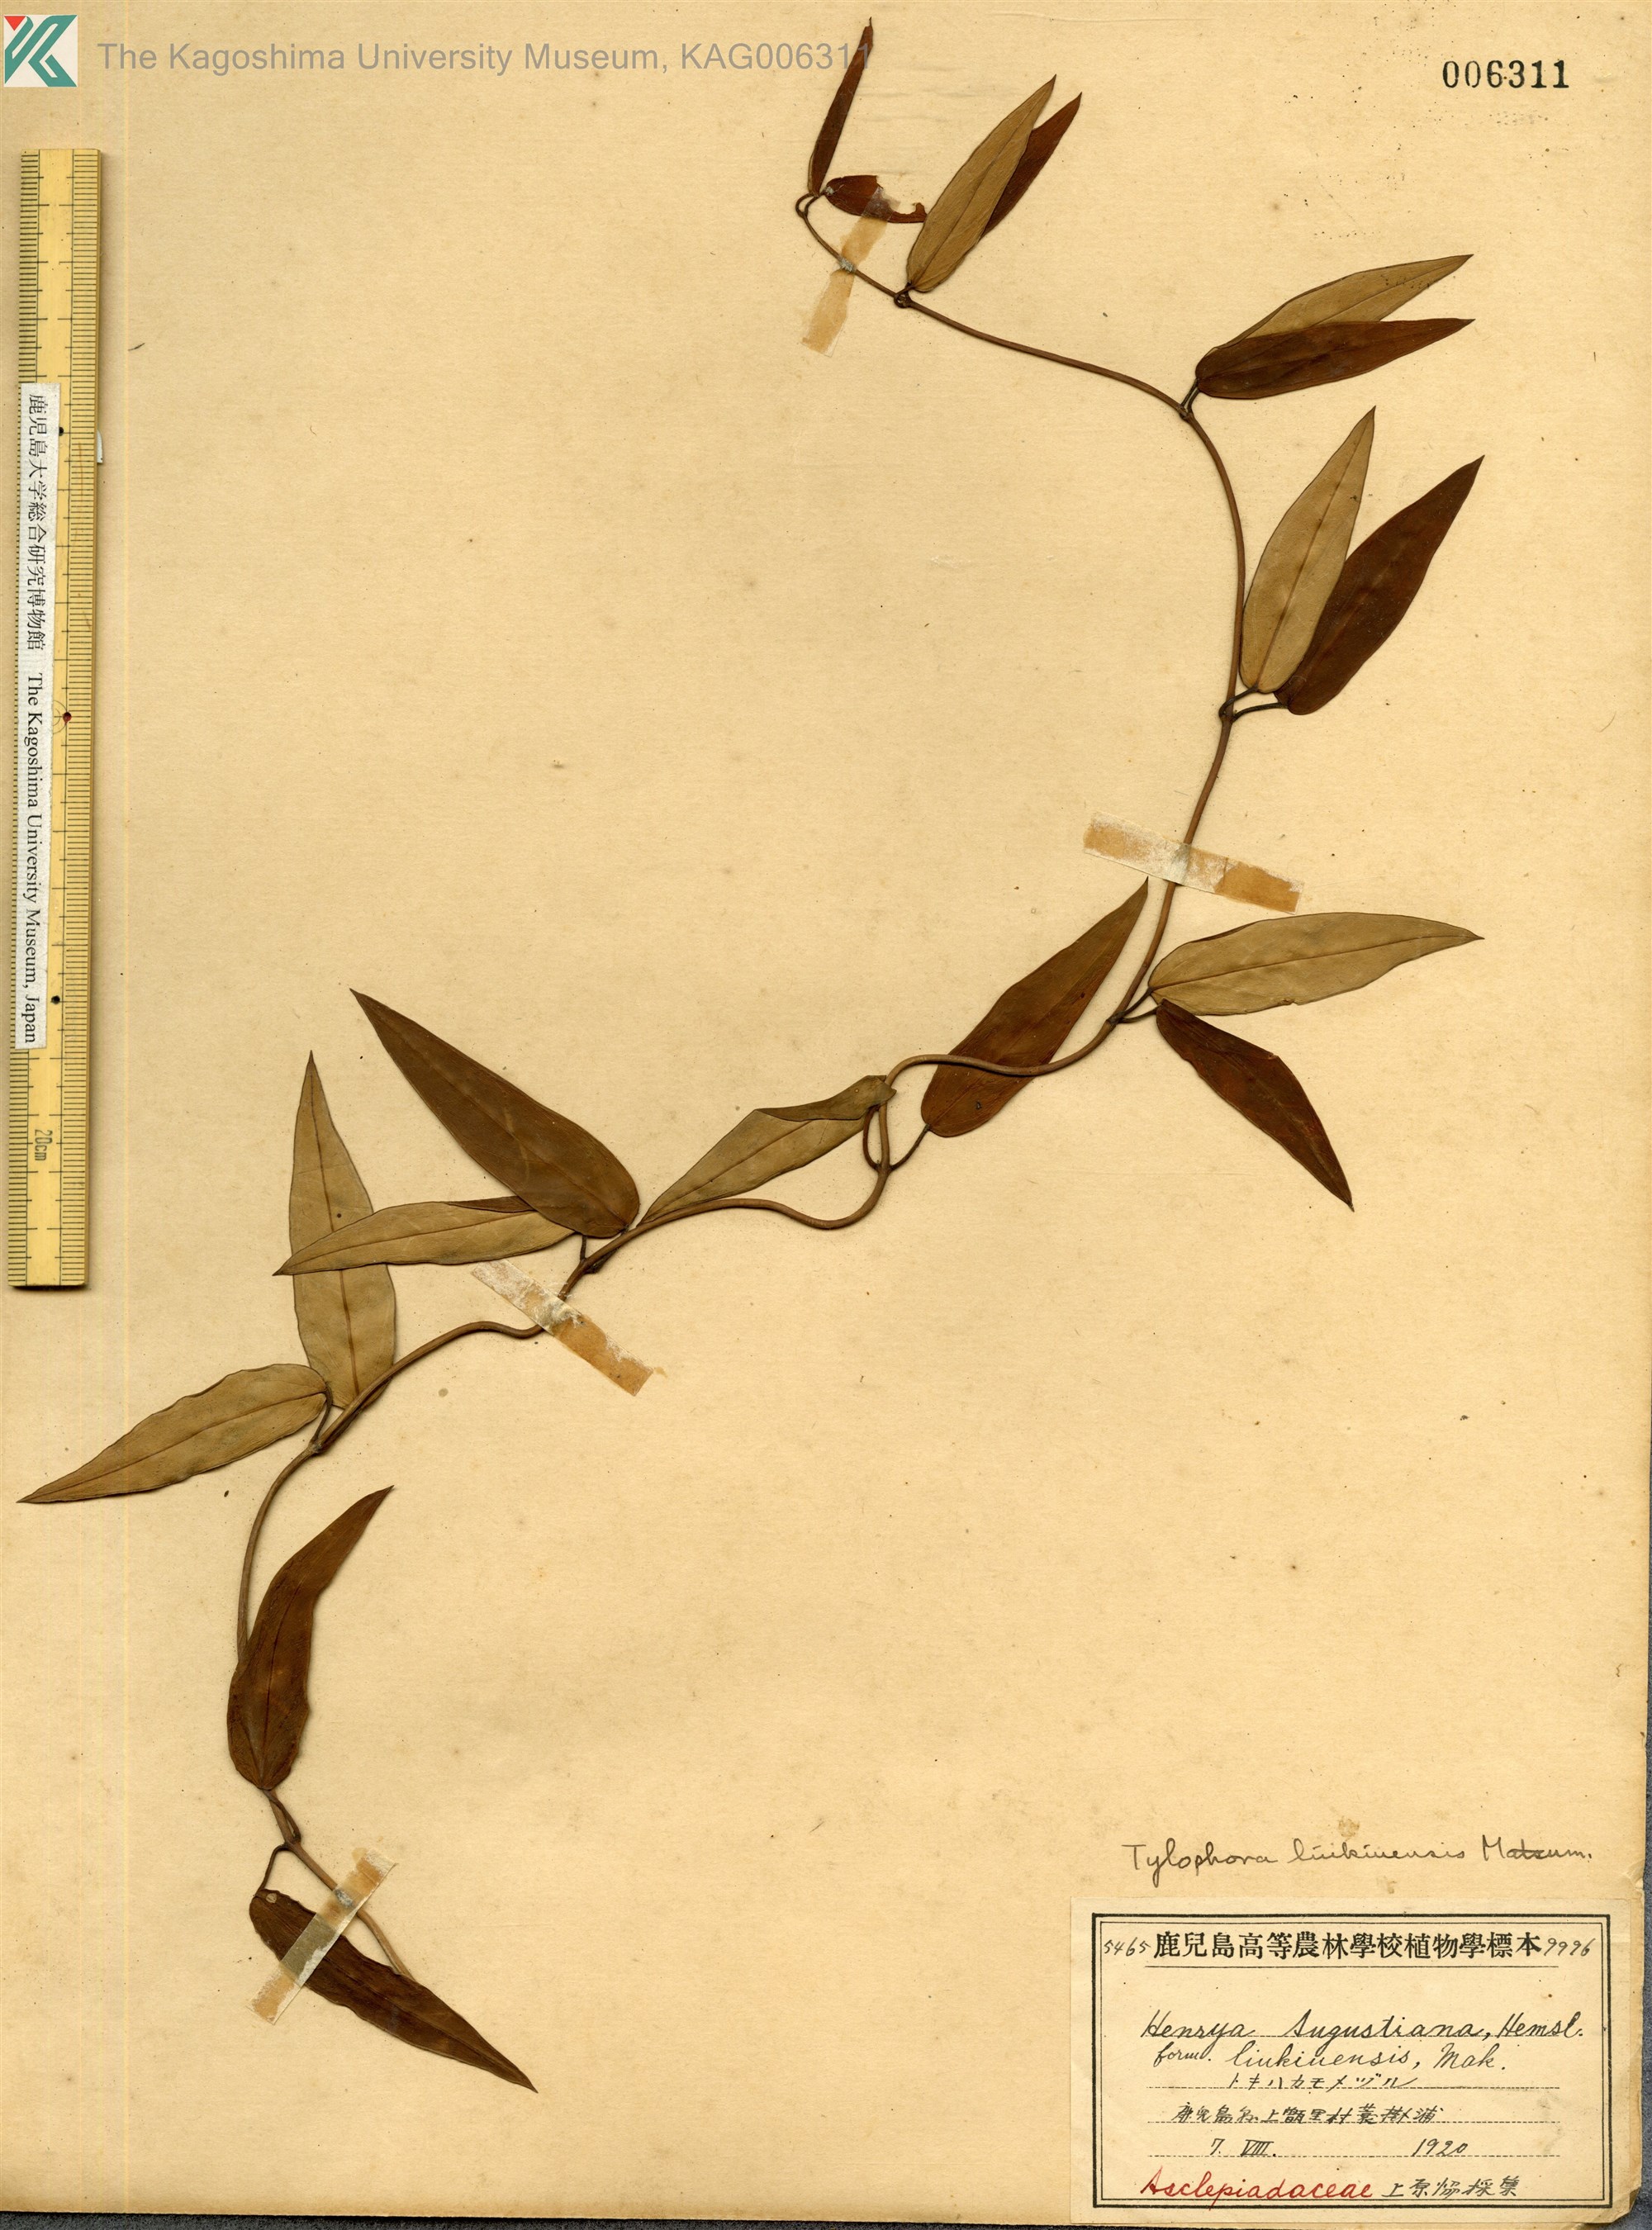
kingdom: Plantae
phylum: Tracheophyta
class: Magnoliopsida
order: Gentianales
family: Apocynaceae
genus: Vincetoxicum
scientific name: Vincetoxicum sieboldii
